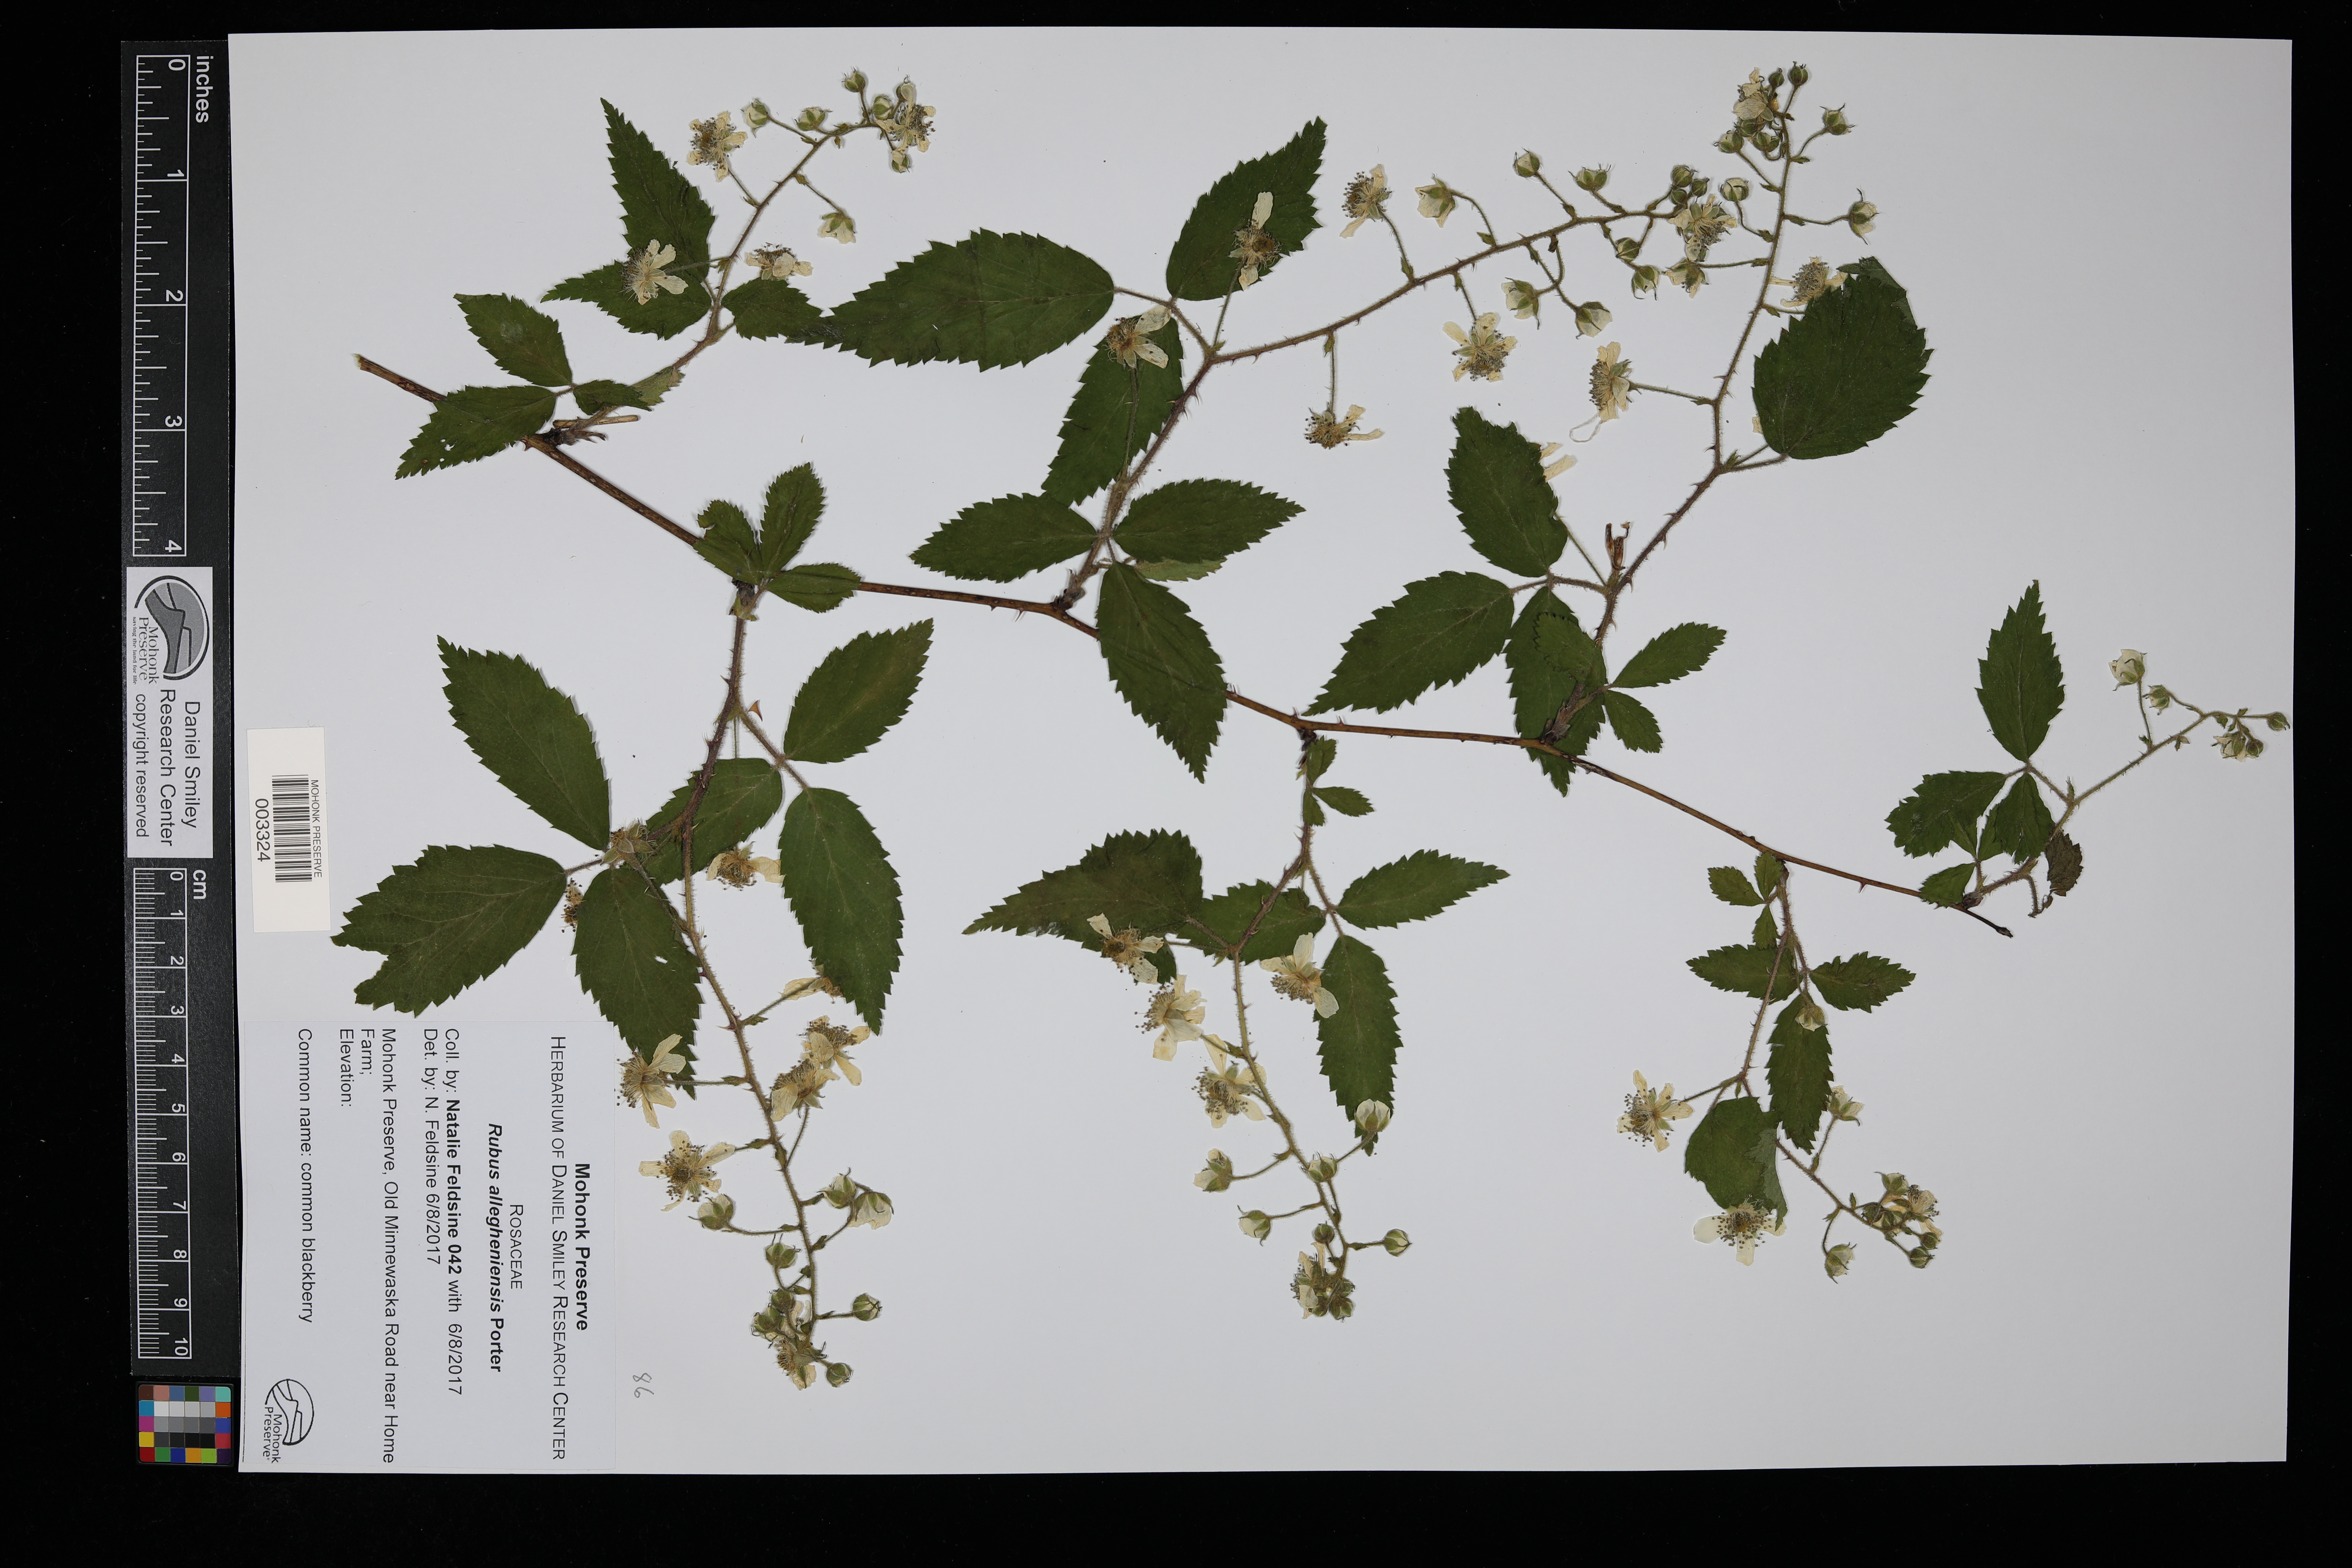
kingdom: Plantae
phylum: Tracheophyta
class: Magnoliopsida
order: Rosales
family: Rosaceae
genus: Rubus
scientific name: Rubus allegheniensis
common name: Allegheny blackberry
